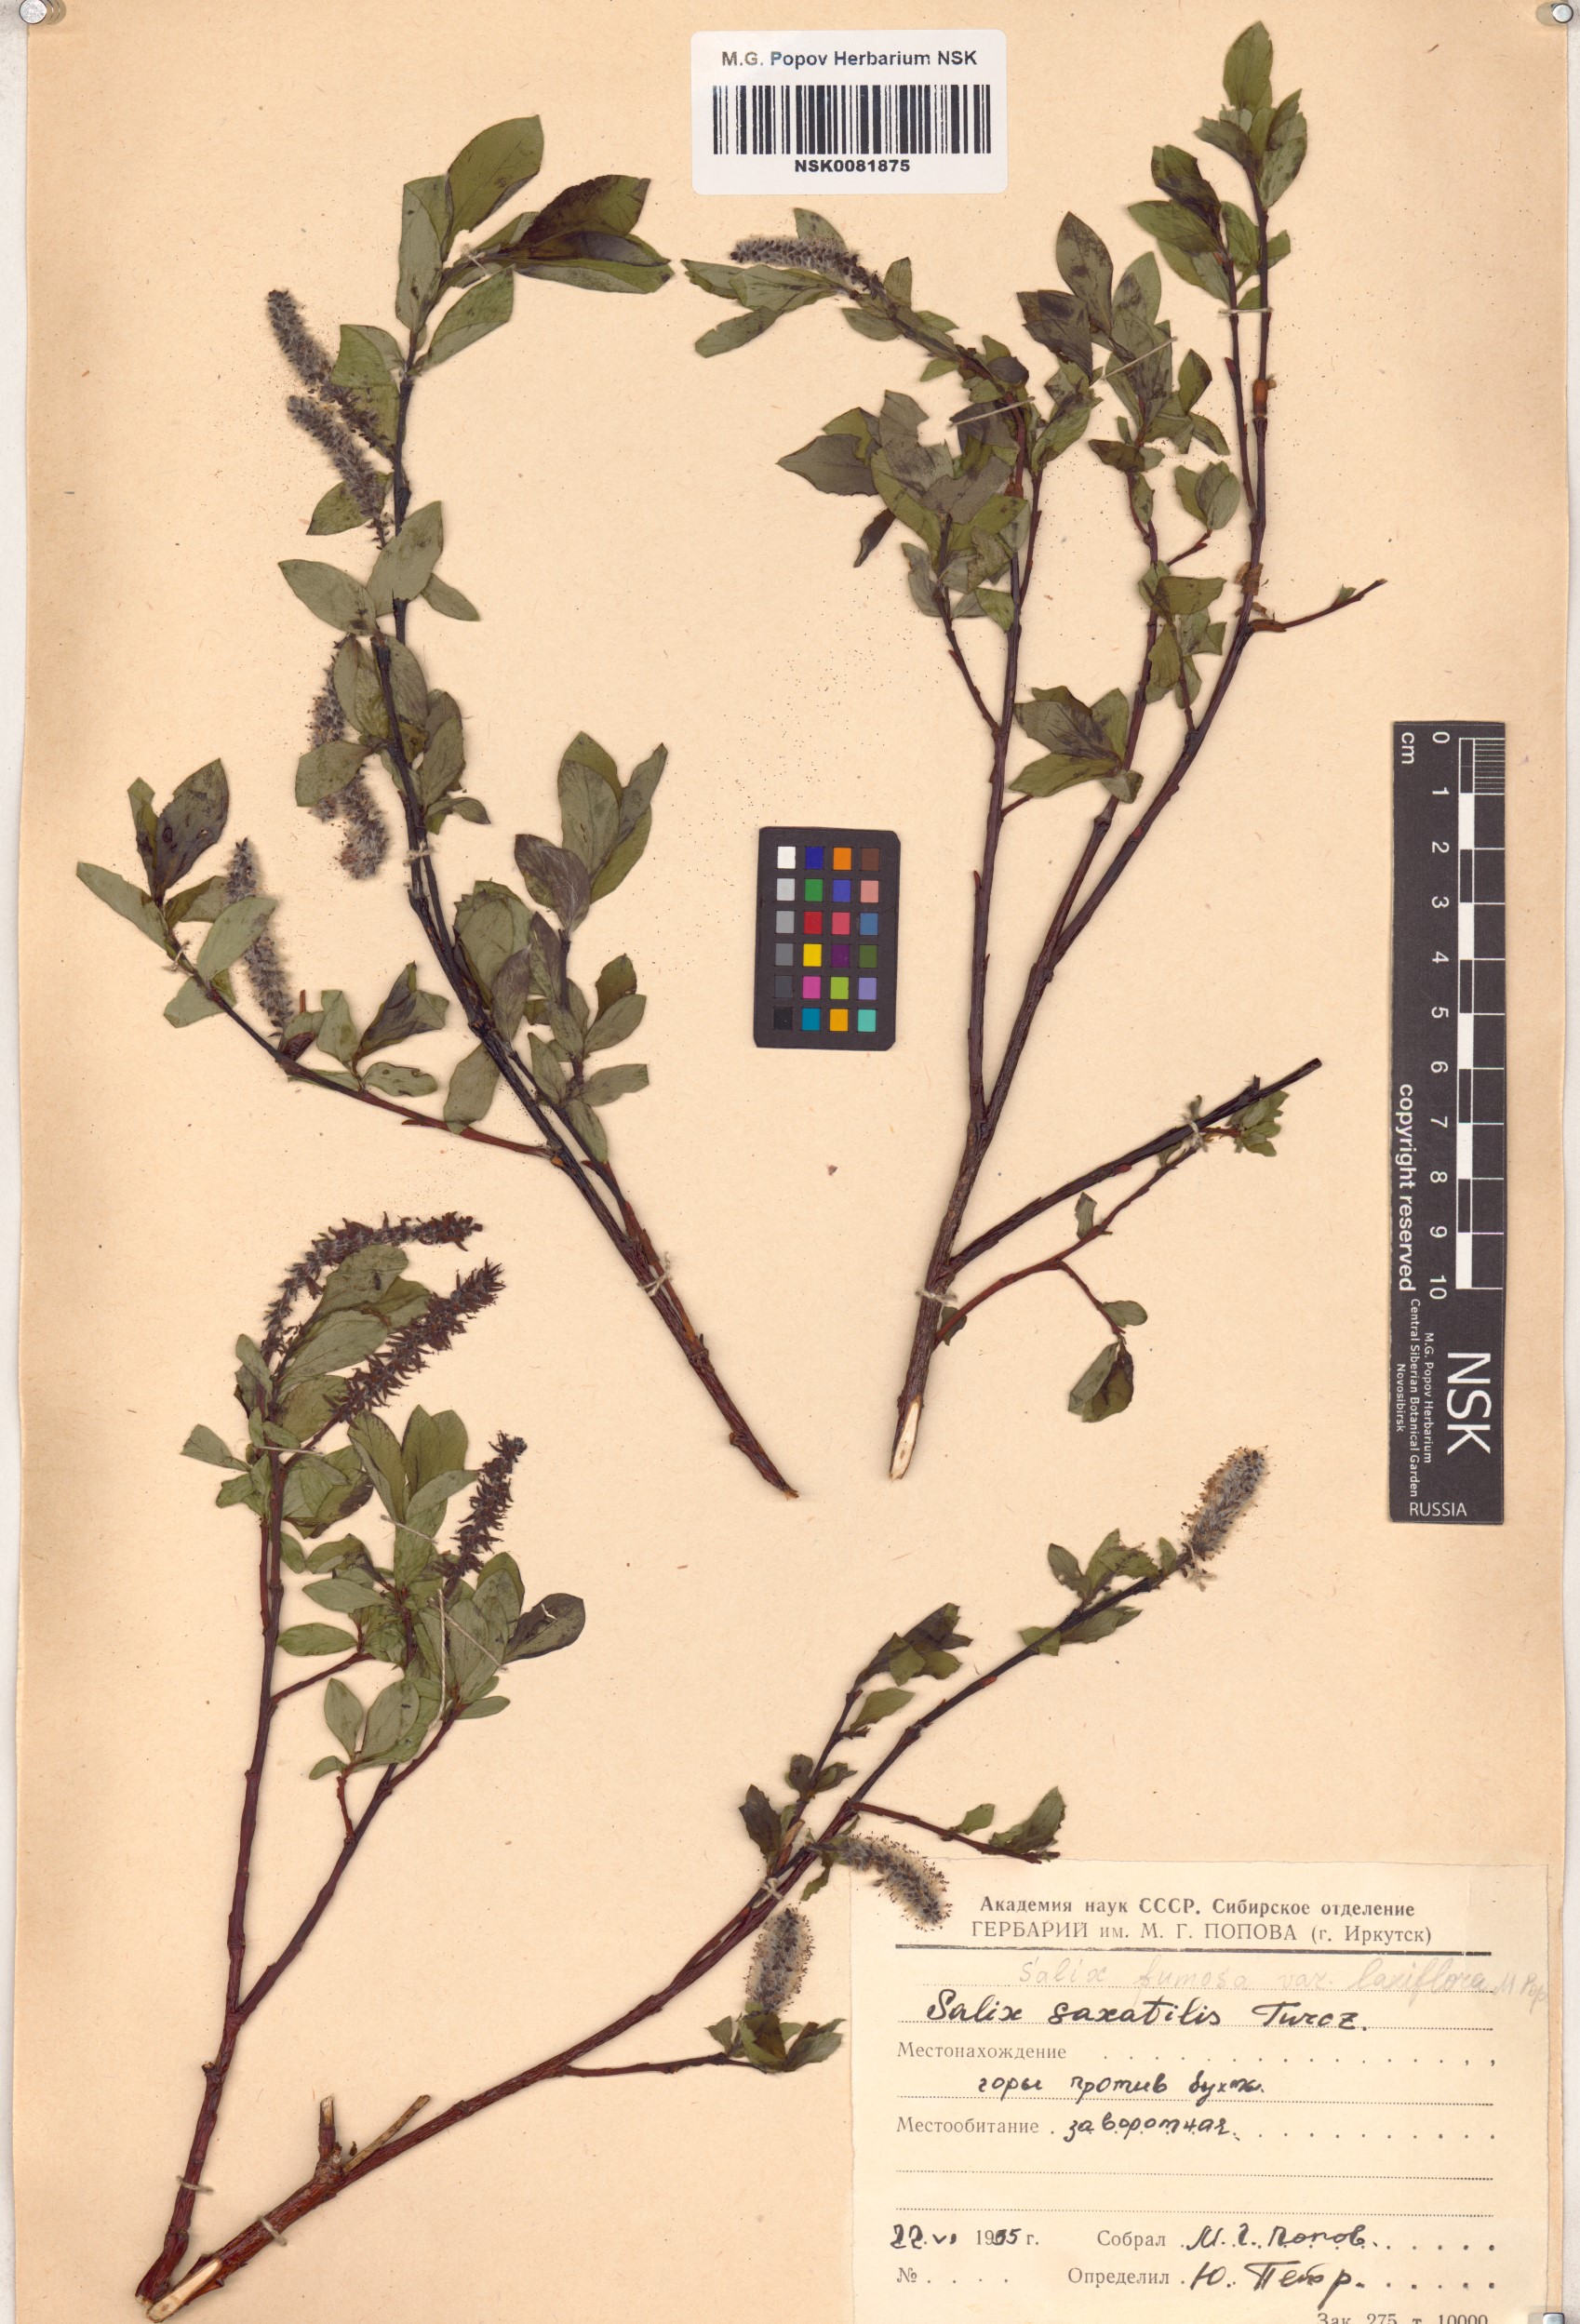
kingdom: Plantae
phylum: Tracheophyta
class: Magnoliopsida
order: Malpighiales
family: Salicaceae
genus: Salix
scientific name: Salix saxatilis
